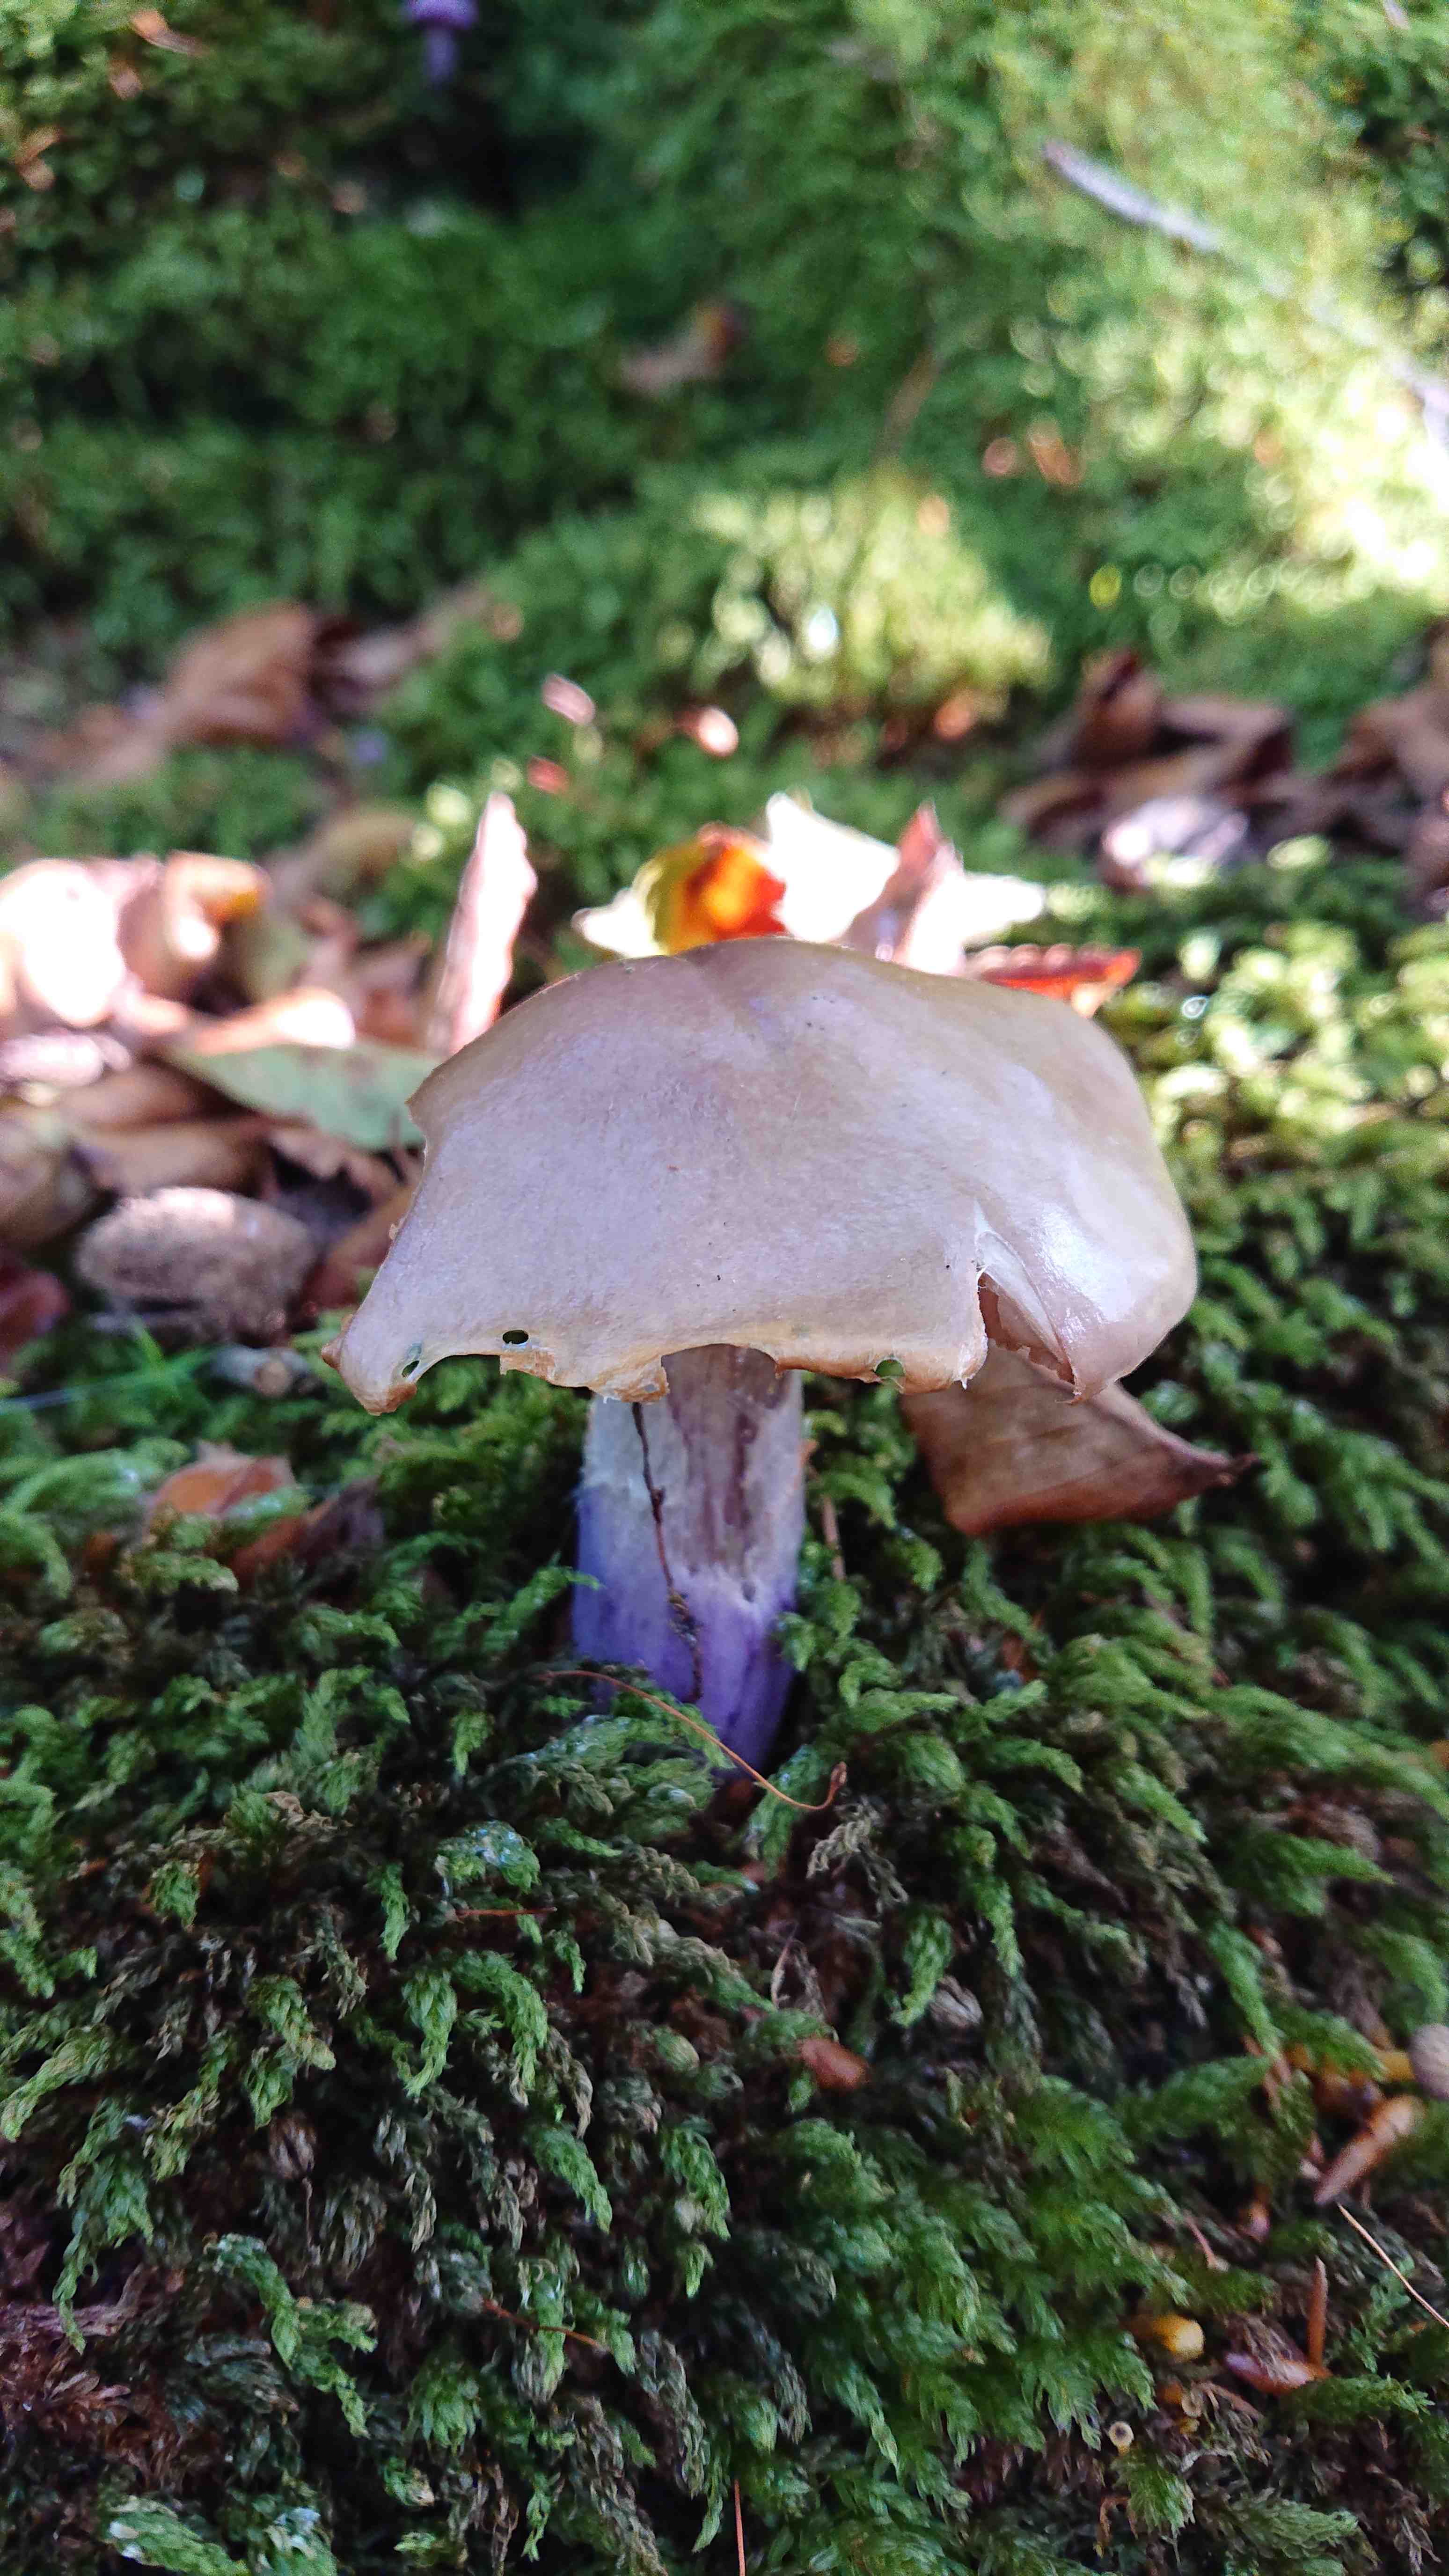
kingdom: Fungi
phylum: Basidiomycota
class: Agaricomycetes
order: Agaricales
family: Cortinariaceae
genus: Cortinarius
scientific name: Cortinarius
